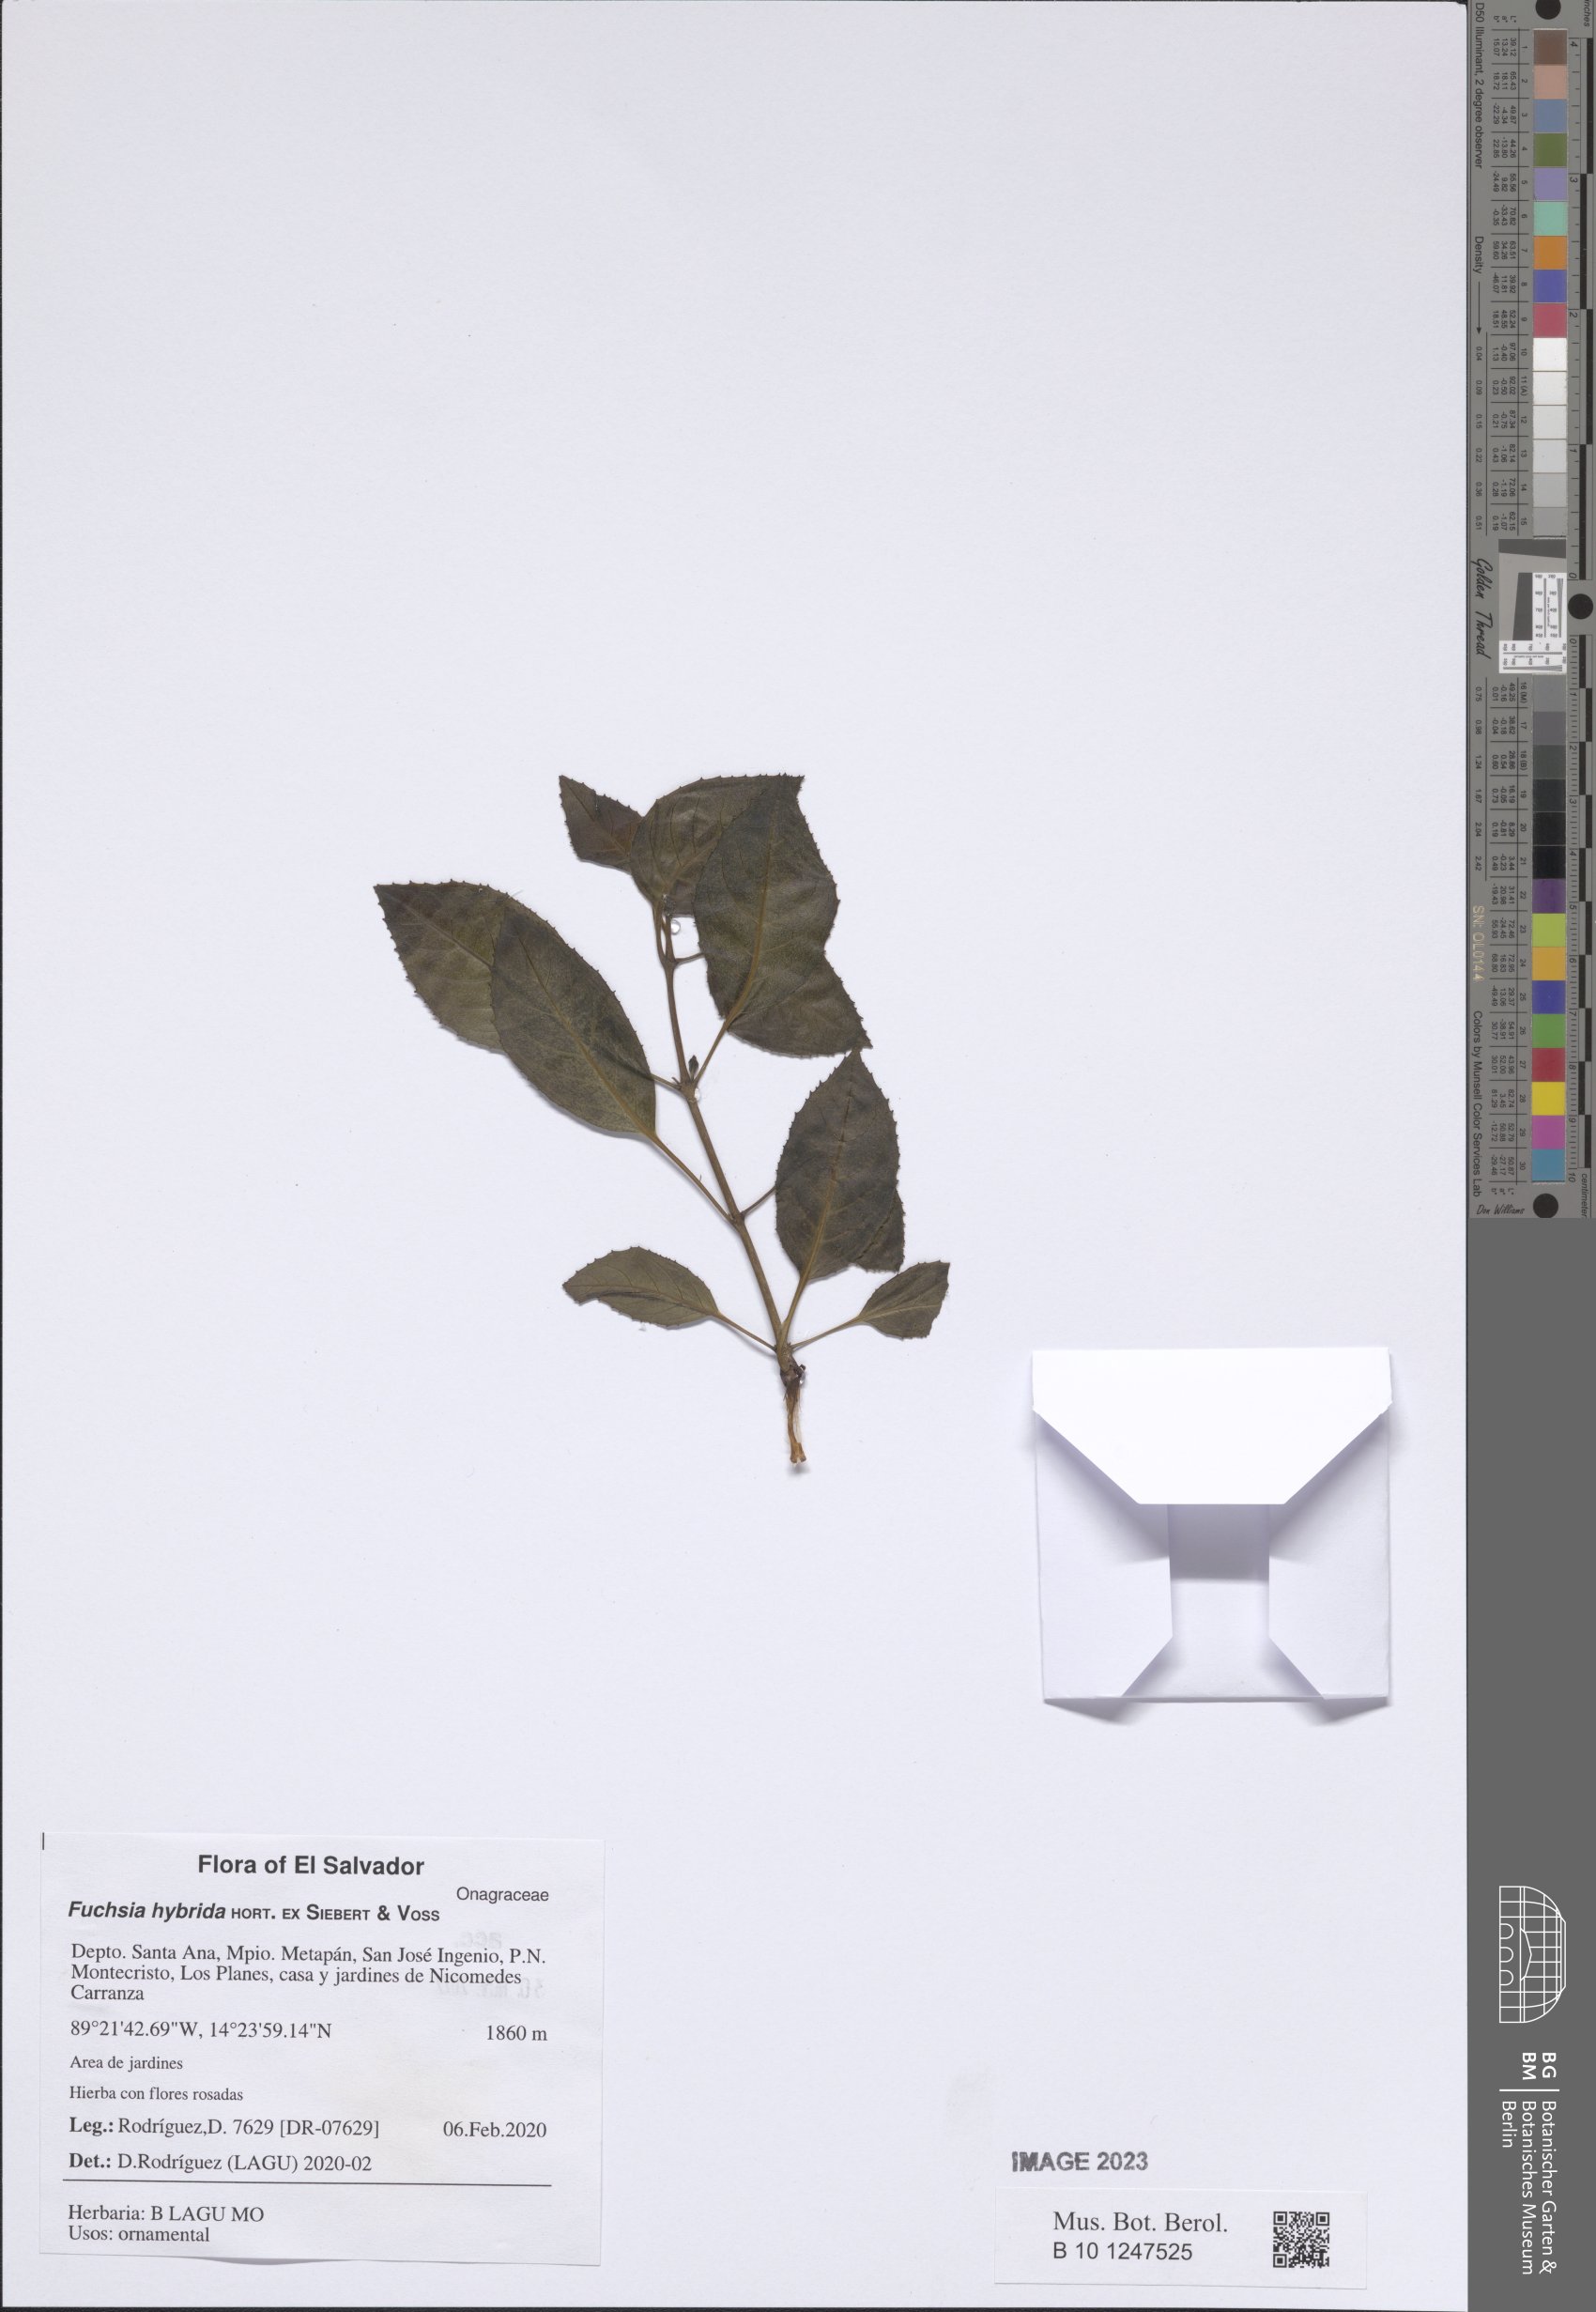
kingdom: Plantae
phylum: Tracheophyta
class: Magnoliopsida
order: Myrtales
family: Onagraceae
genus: Fuchsia
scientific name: Fuchsia standishii
